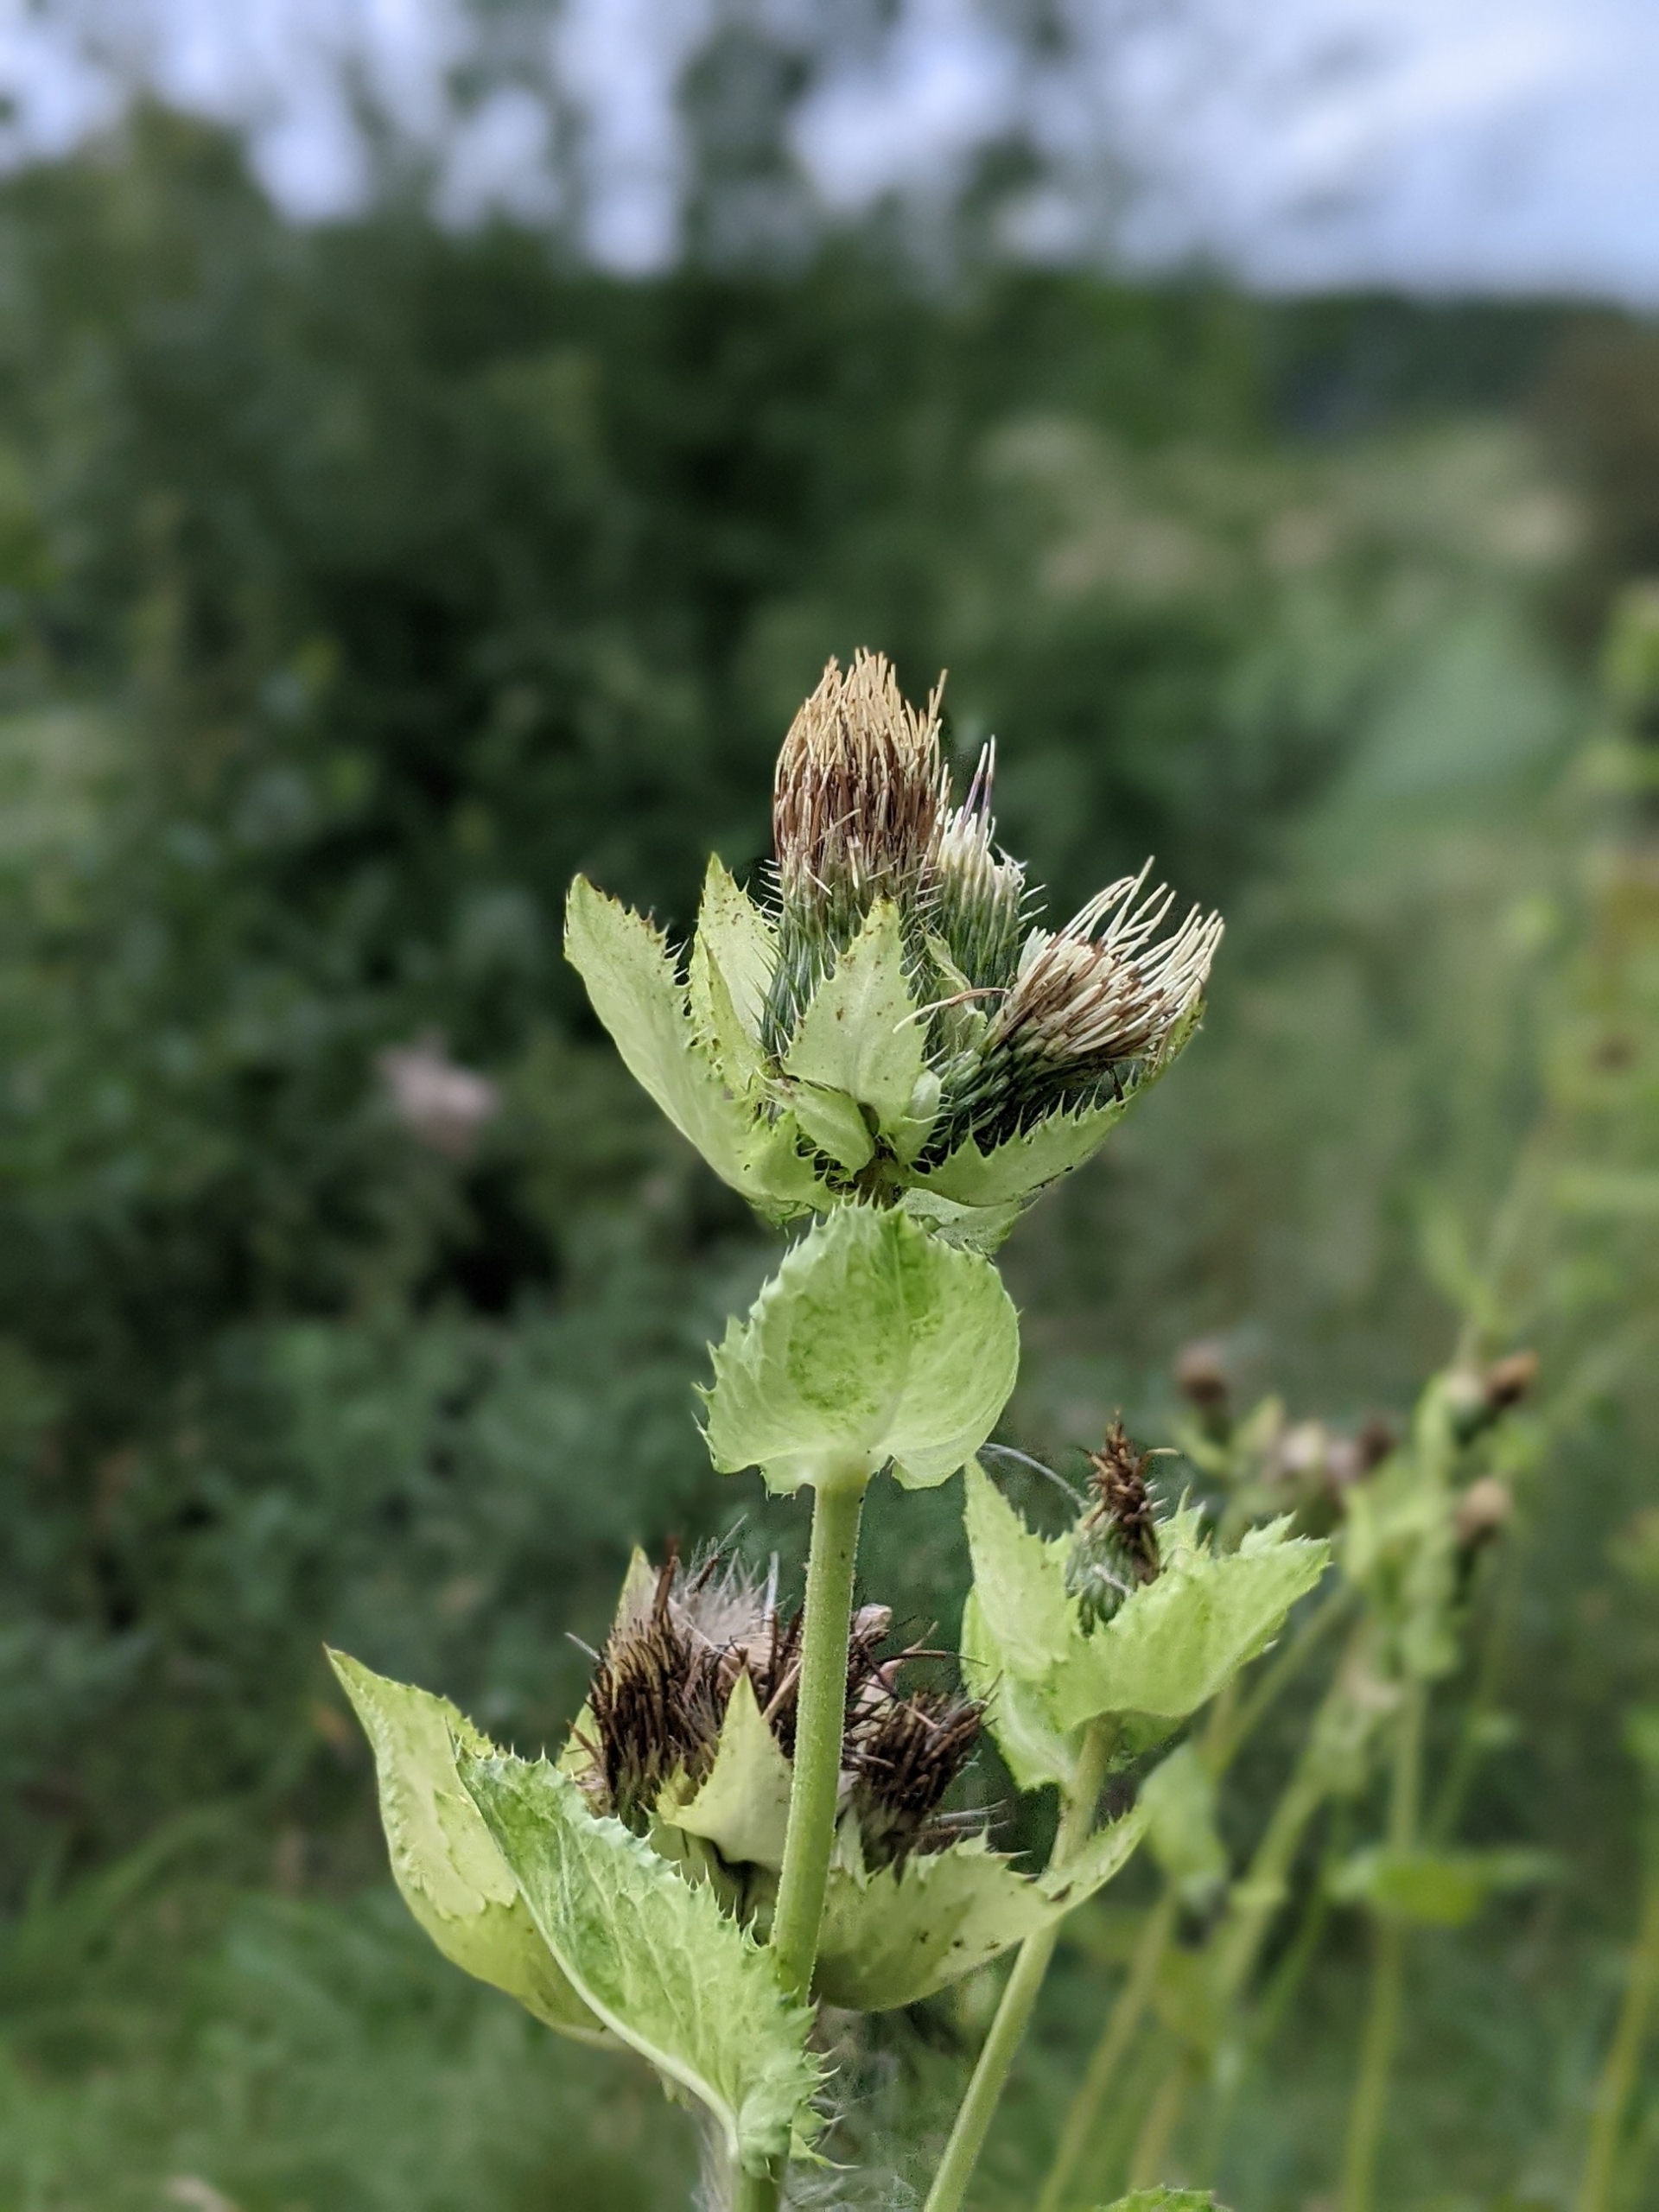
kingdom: Plantae
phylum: Tracheophyta
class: Magnoliopsida
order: Asterales
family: Asteraceae
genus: Cirsium
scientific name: Cirsium oleraceum
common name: Kål-tidsel
